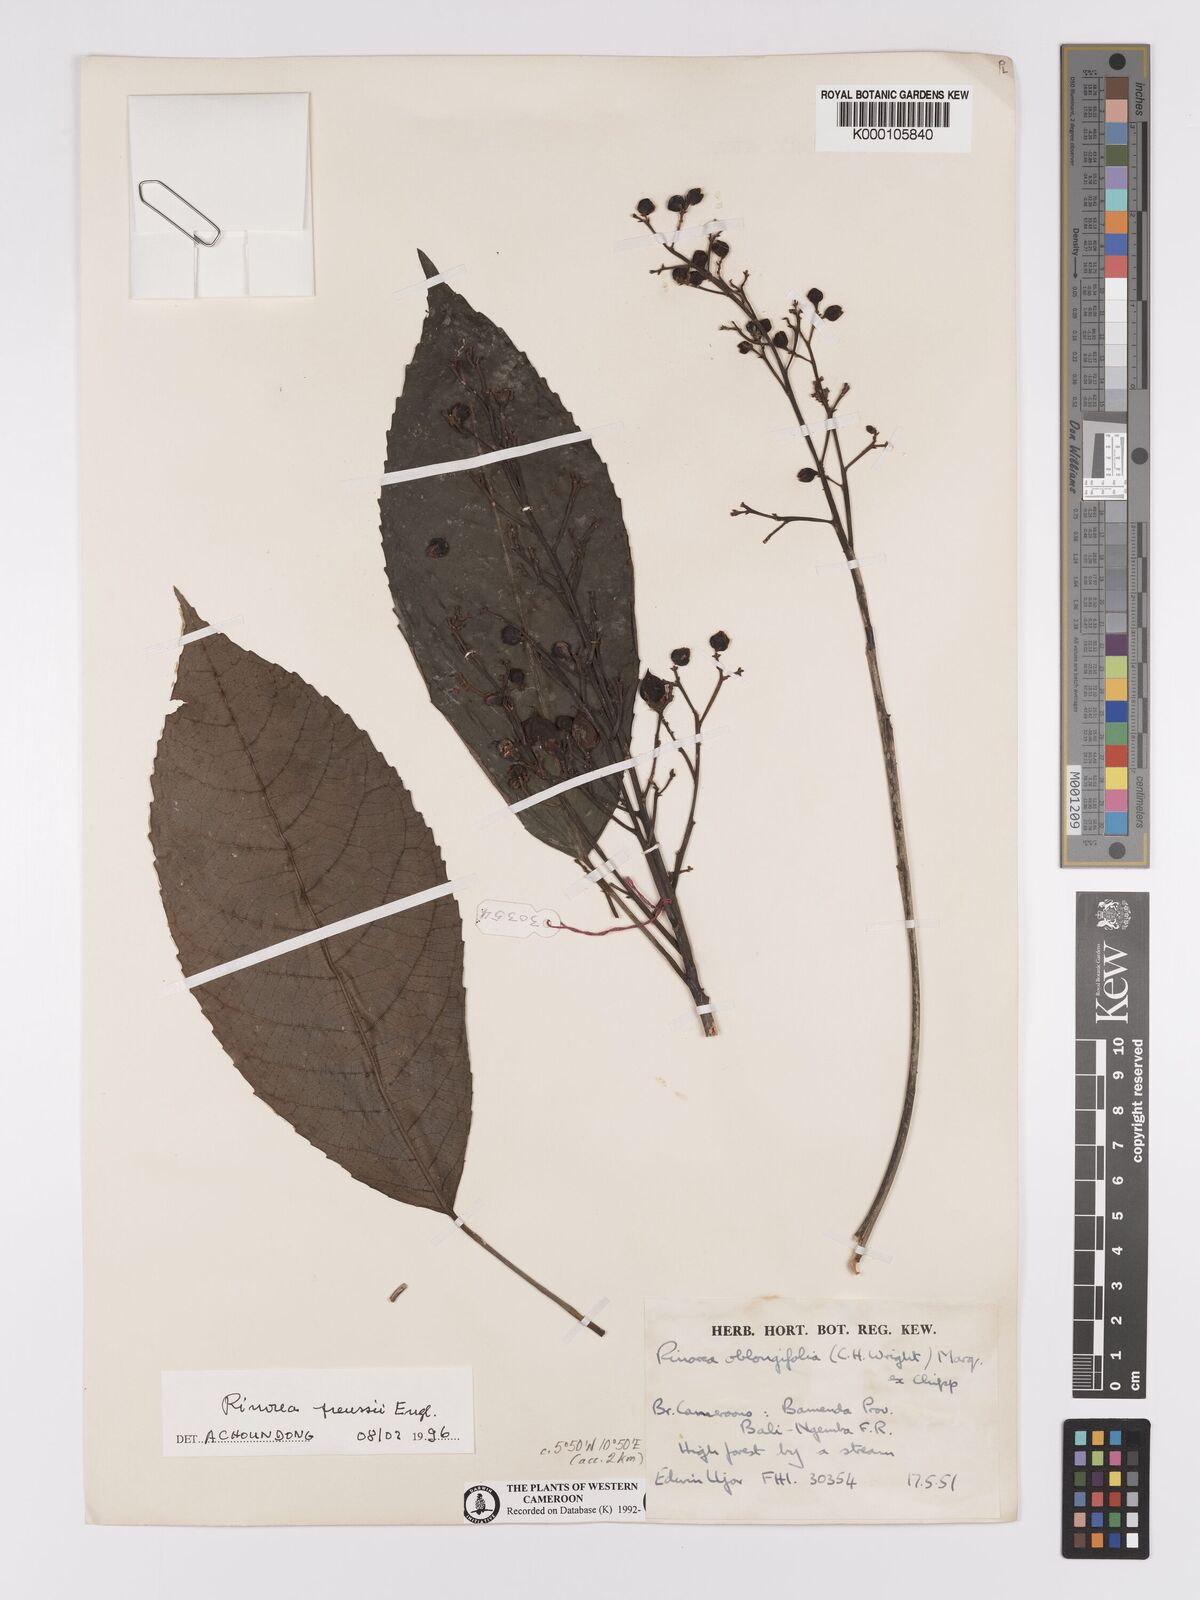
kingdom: Plantae
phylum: Tracheophyta
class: Magnoliopsida
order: Malpighiales
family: Violaceae
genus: Rinorea
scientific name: Rinorea preussii
